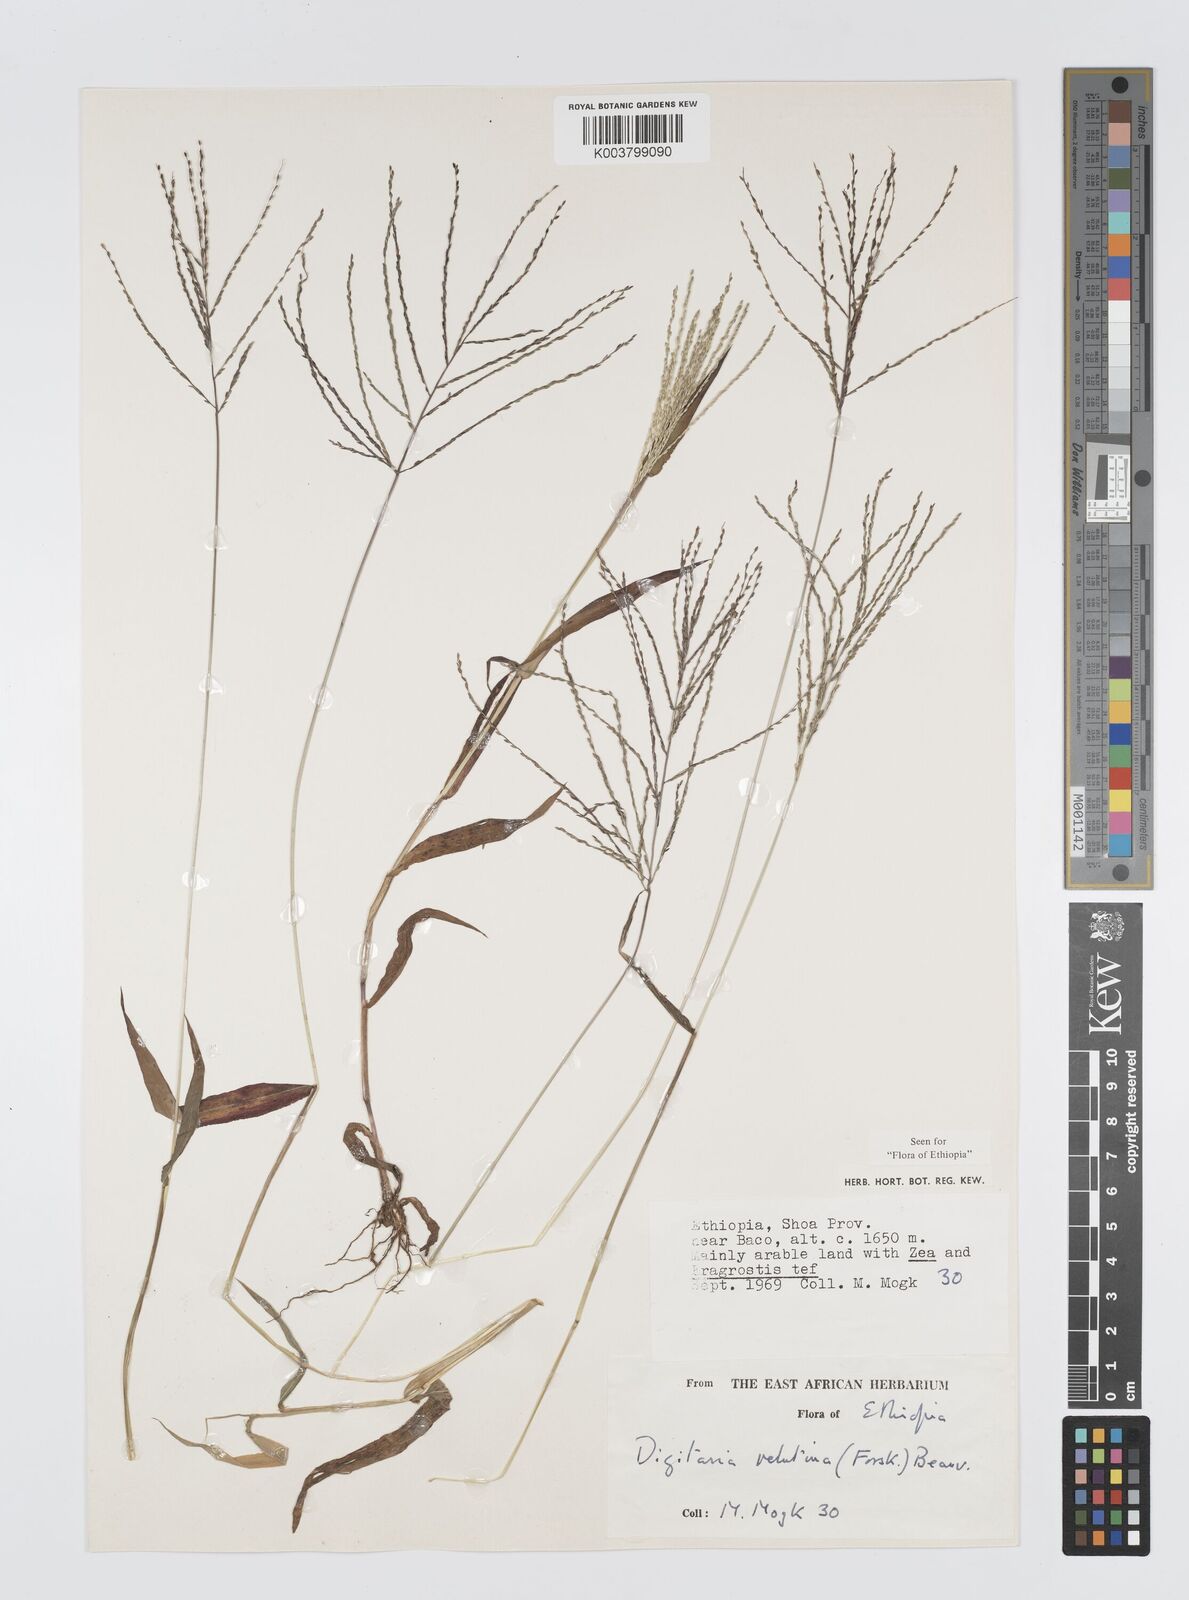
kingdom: Plantae
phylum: Tracheophyta
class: Liliopsida
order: Poales
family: Poaceae
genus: Digitaria
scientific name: Digitaria velutina
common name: Long-plume finger grass
